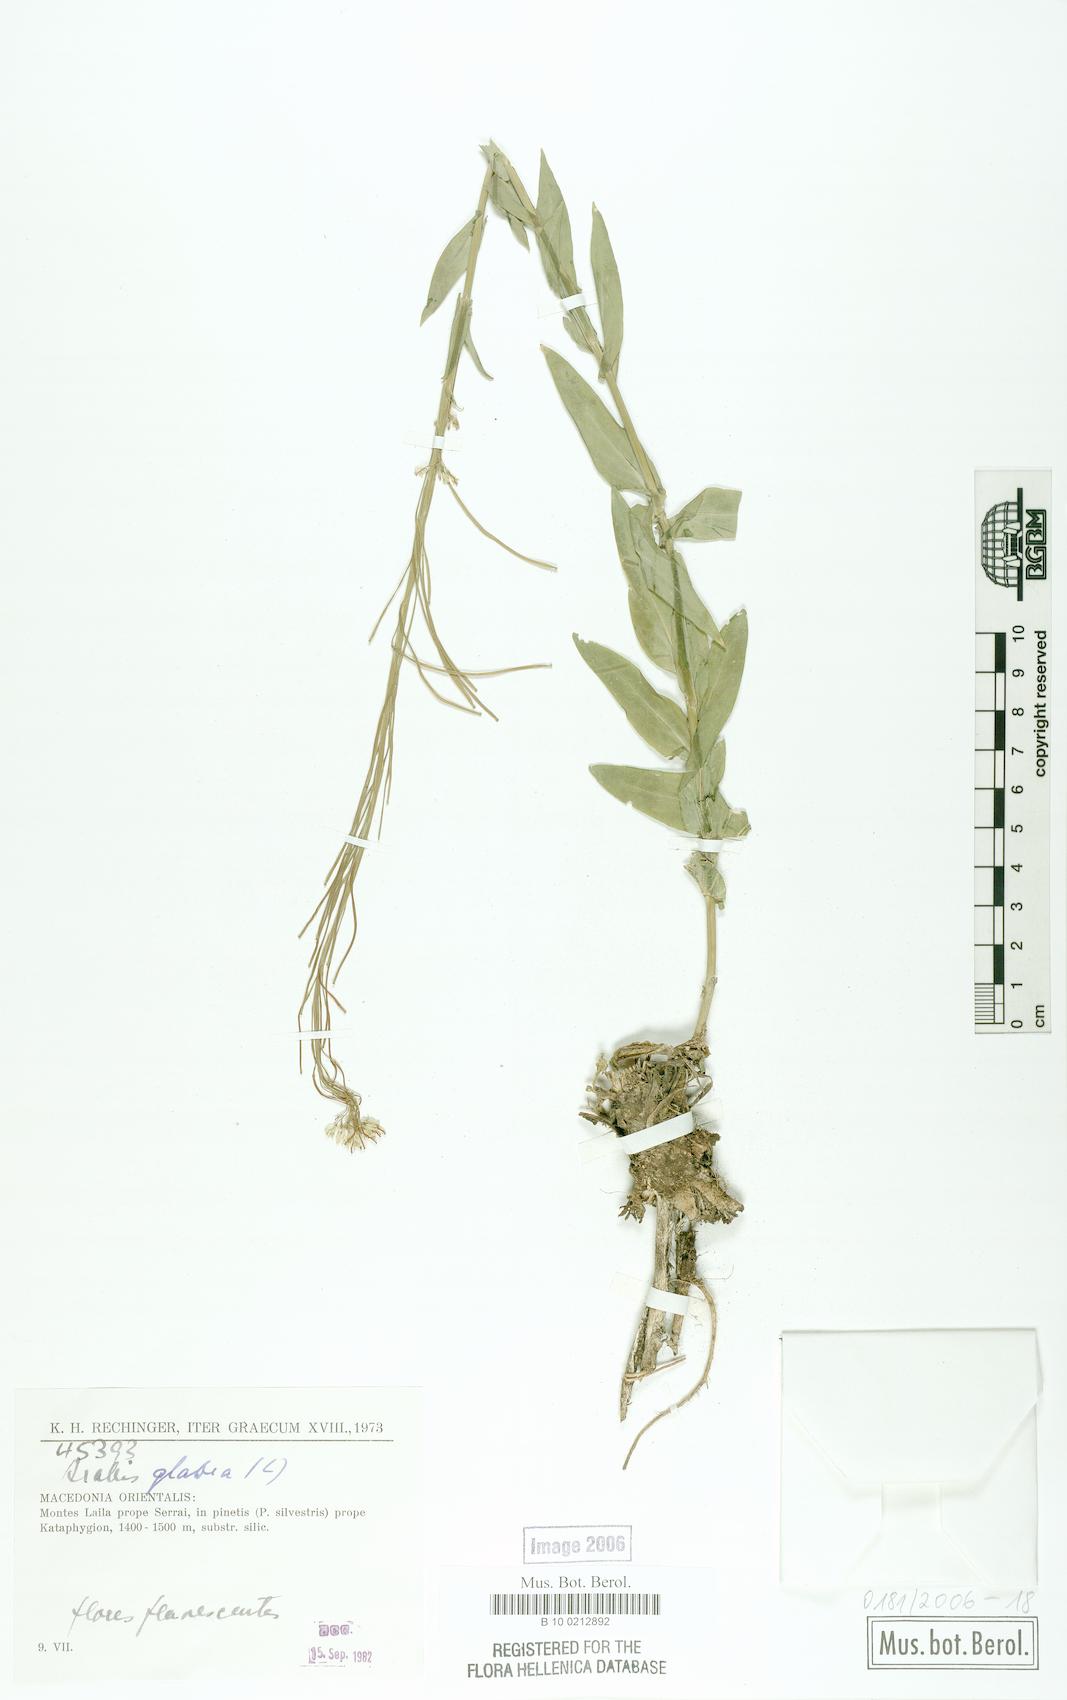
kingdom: Plantae
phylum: Tracheophyta
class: Magnoliopsida
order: Brassicales
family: Brassicaceae
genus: Turritis
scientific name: Turritis glabra
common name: Tower rockcress
